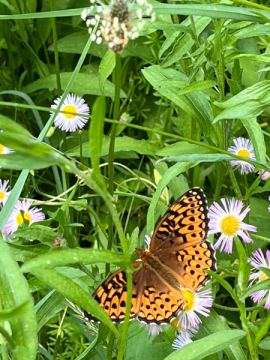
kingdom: Animalia
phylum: Arthropoda
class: Insecta
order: Lepidoptera
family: Nymphalidae
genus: Speyeria
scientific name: Speyeria atlantis
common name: Atlantis Fritillary
